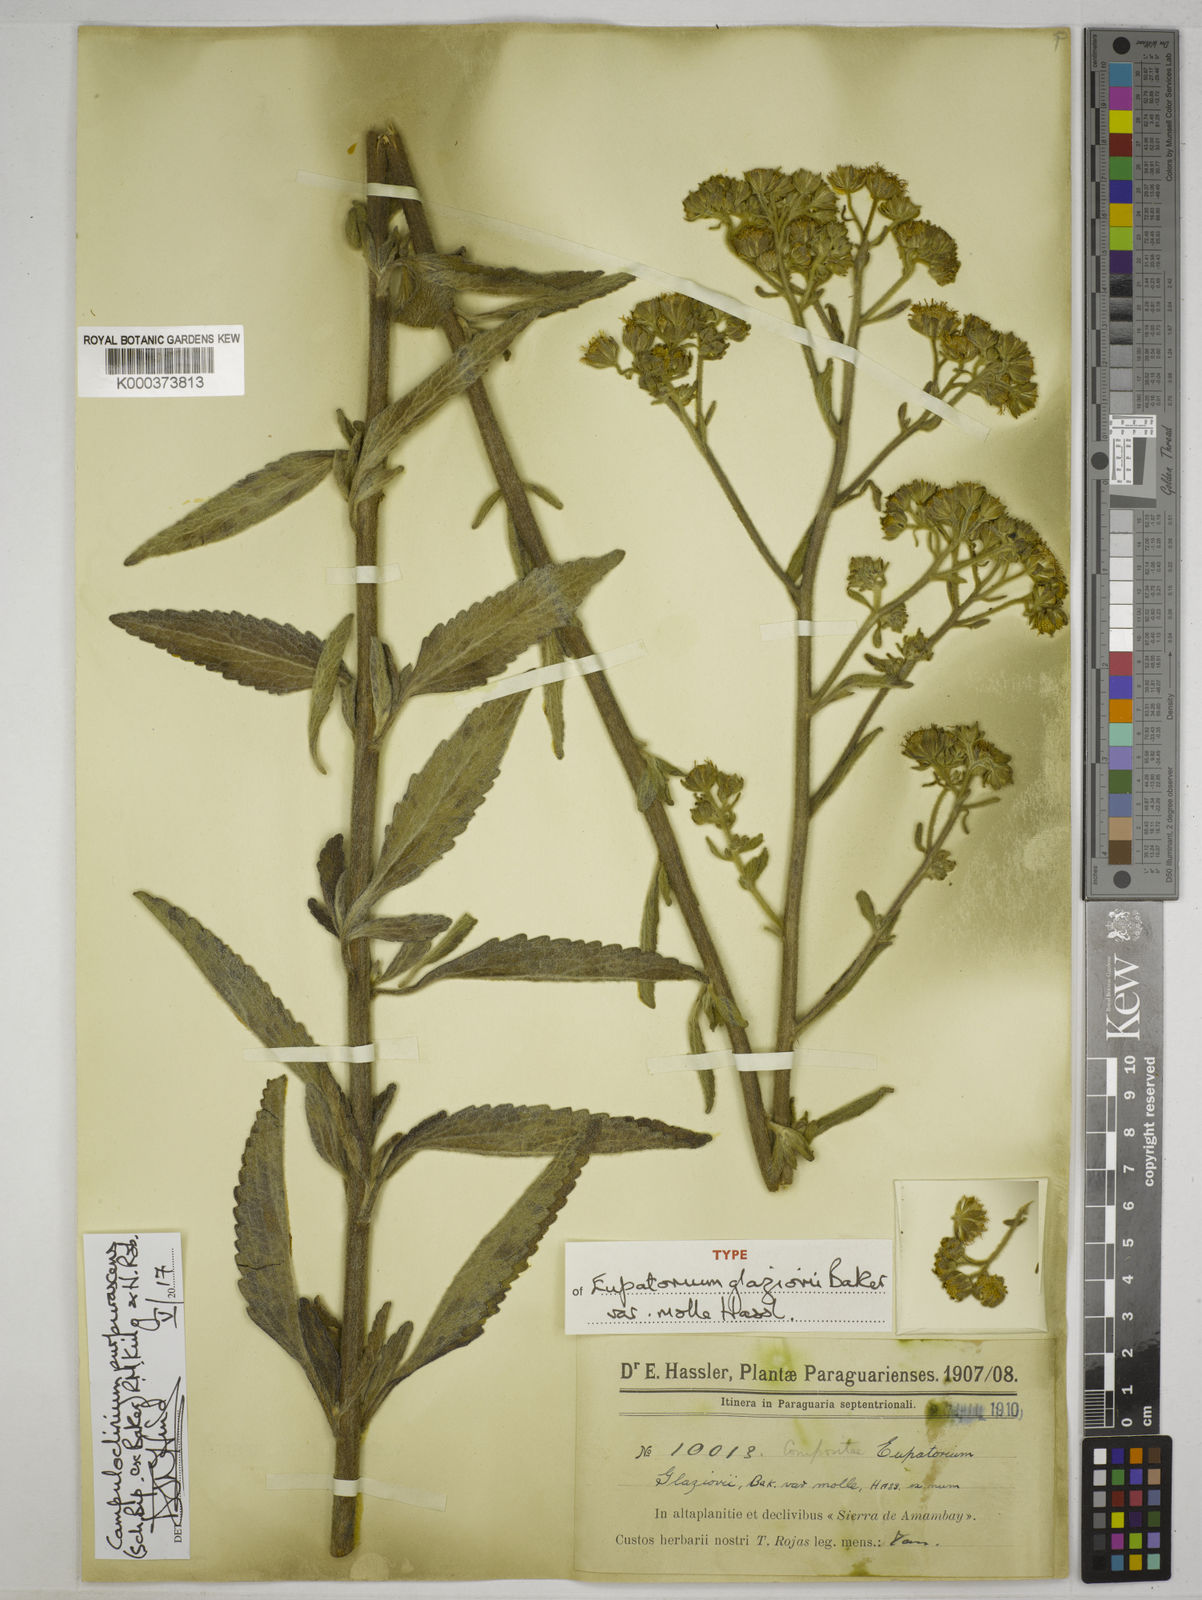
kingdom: Plantae
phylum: Tracheophyta
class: Magnoliopsida
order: Asterales
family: Asteraceae
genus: Campuloclinium
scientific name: Campuloclinium purpurascens
